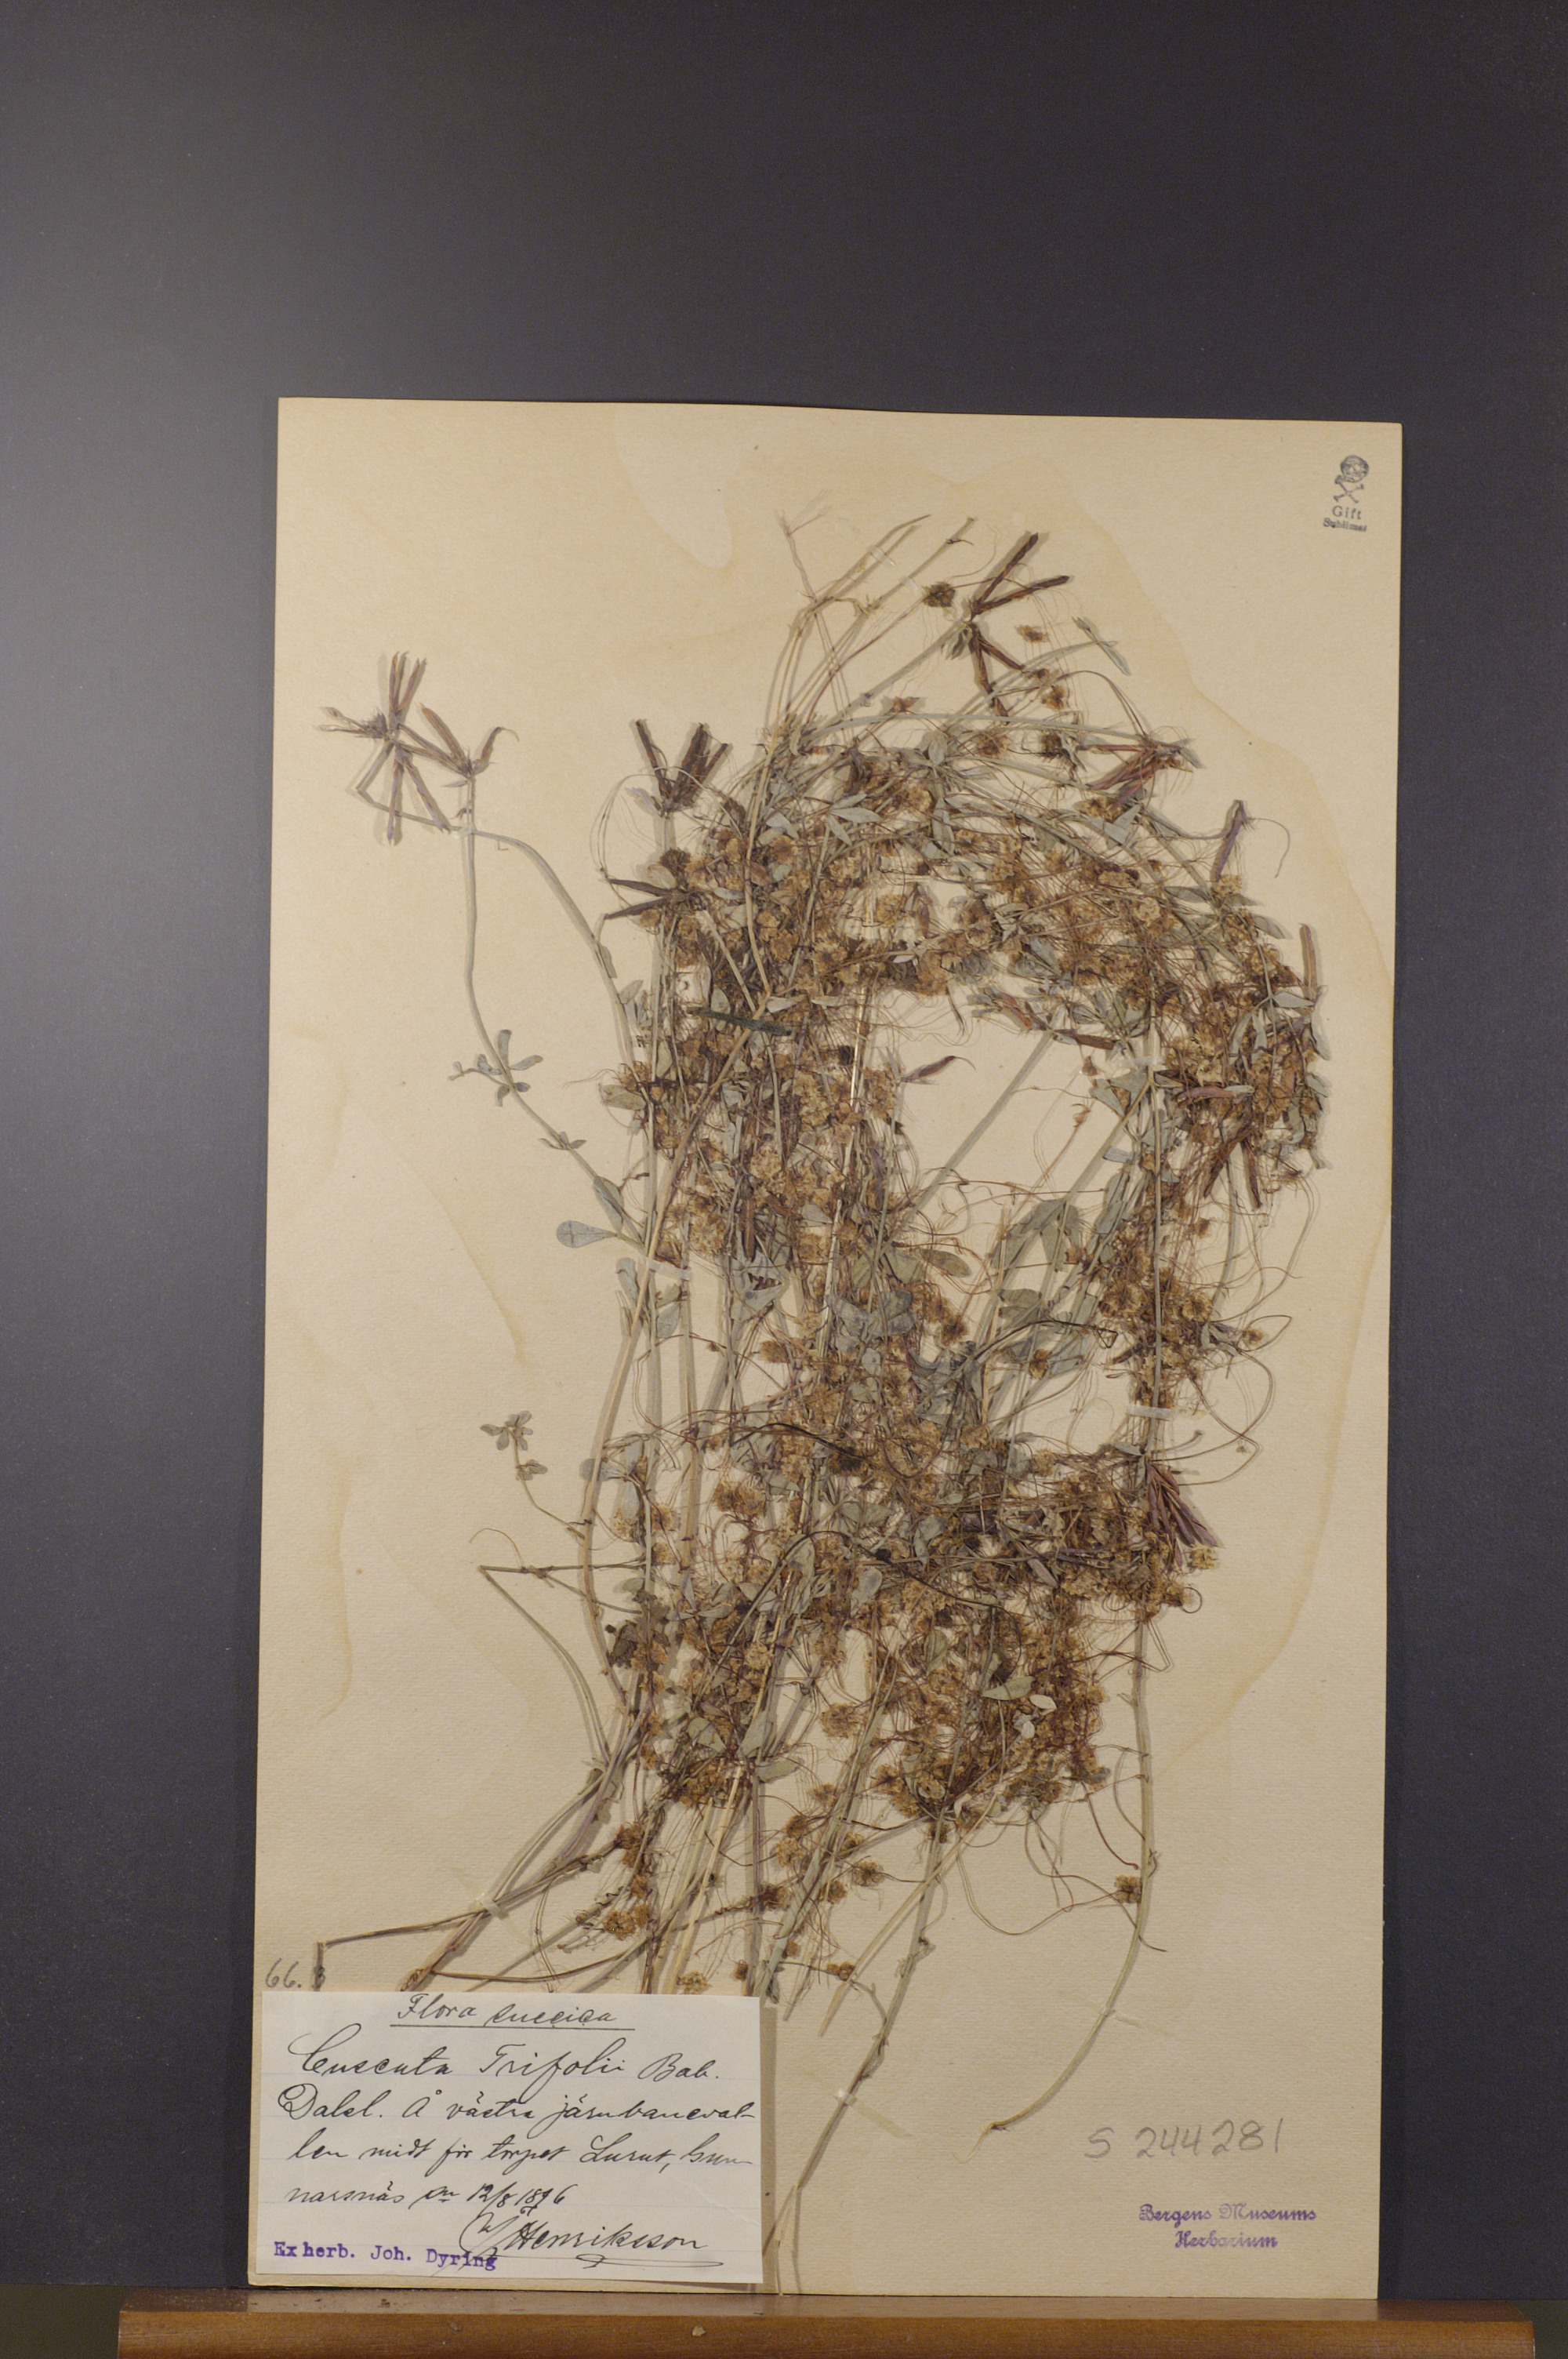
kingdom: Plantae
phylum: Tracheophyta
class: Magnoliopsida
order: Solanales
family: Convolvulaceae
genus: Cuscuta
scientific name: Cuscuta epithymum
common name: Clover dodder
